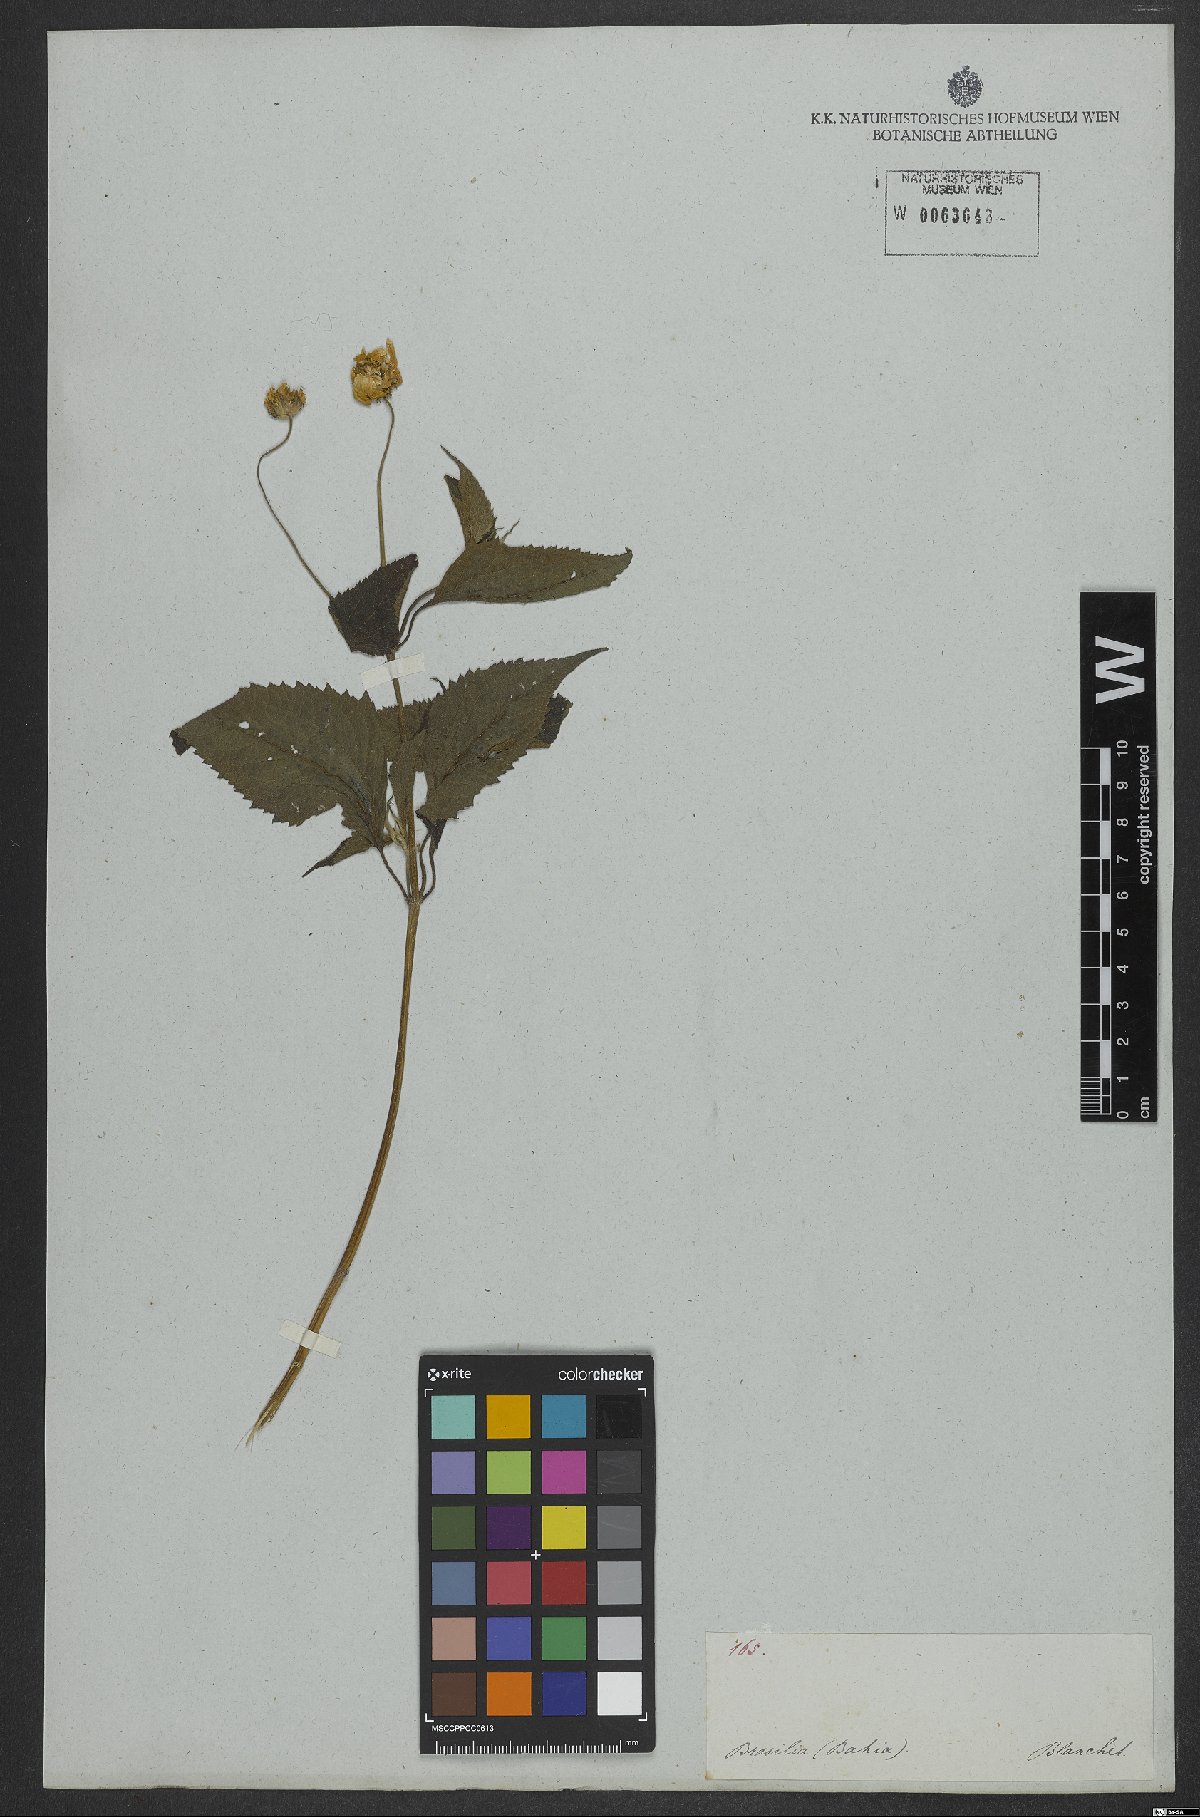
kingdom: Plantae
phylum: Tracheophyta
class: Magnoliopsida
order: Asterales
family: Asteraceae
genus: Melanthera
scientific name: Melanthera
